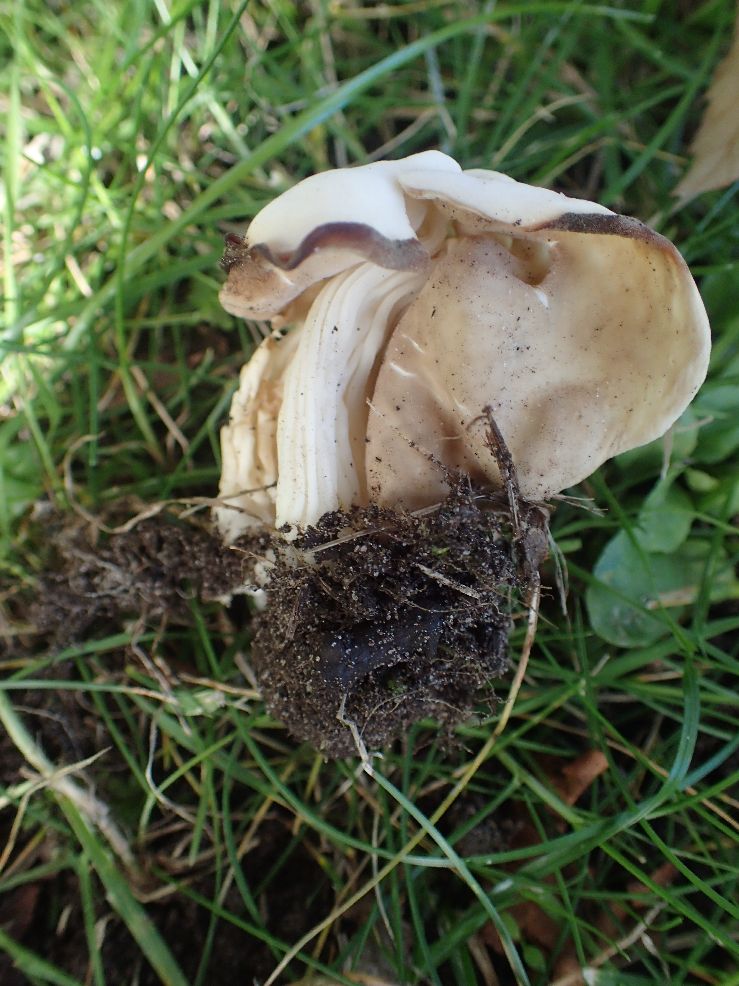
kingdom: Fungi
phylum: Ascomycota
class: Pezizomycetes
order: Pezizales
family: Helvellaceae
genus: Helvella
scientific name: Helvella crispa
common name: kruset foldhat
